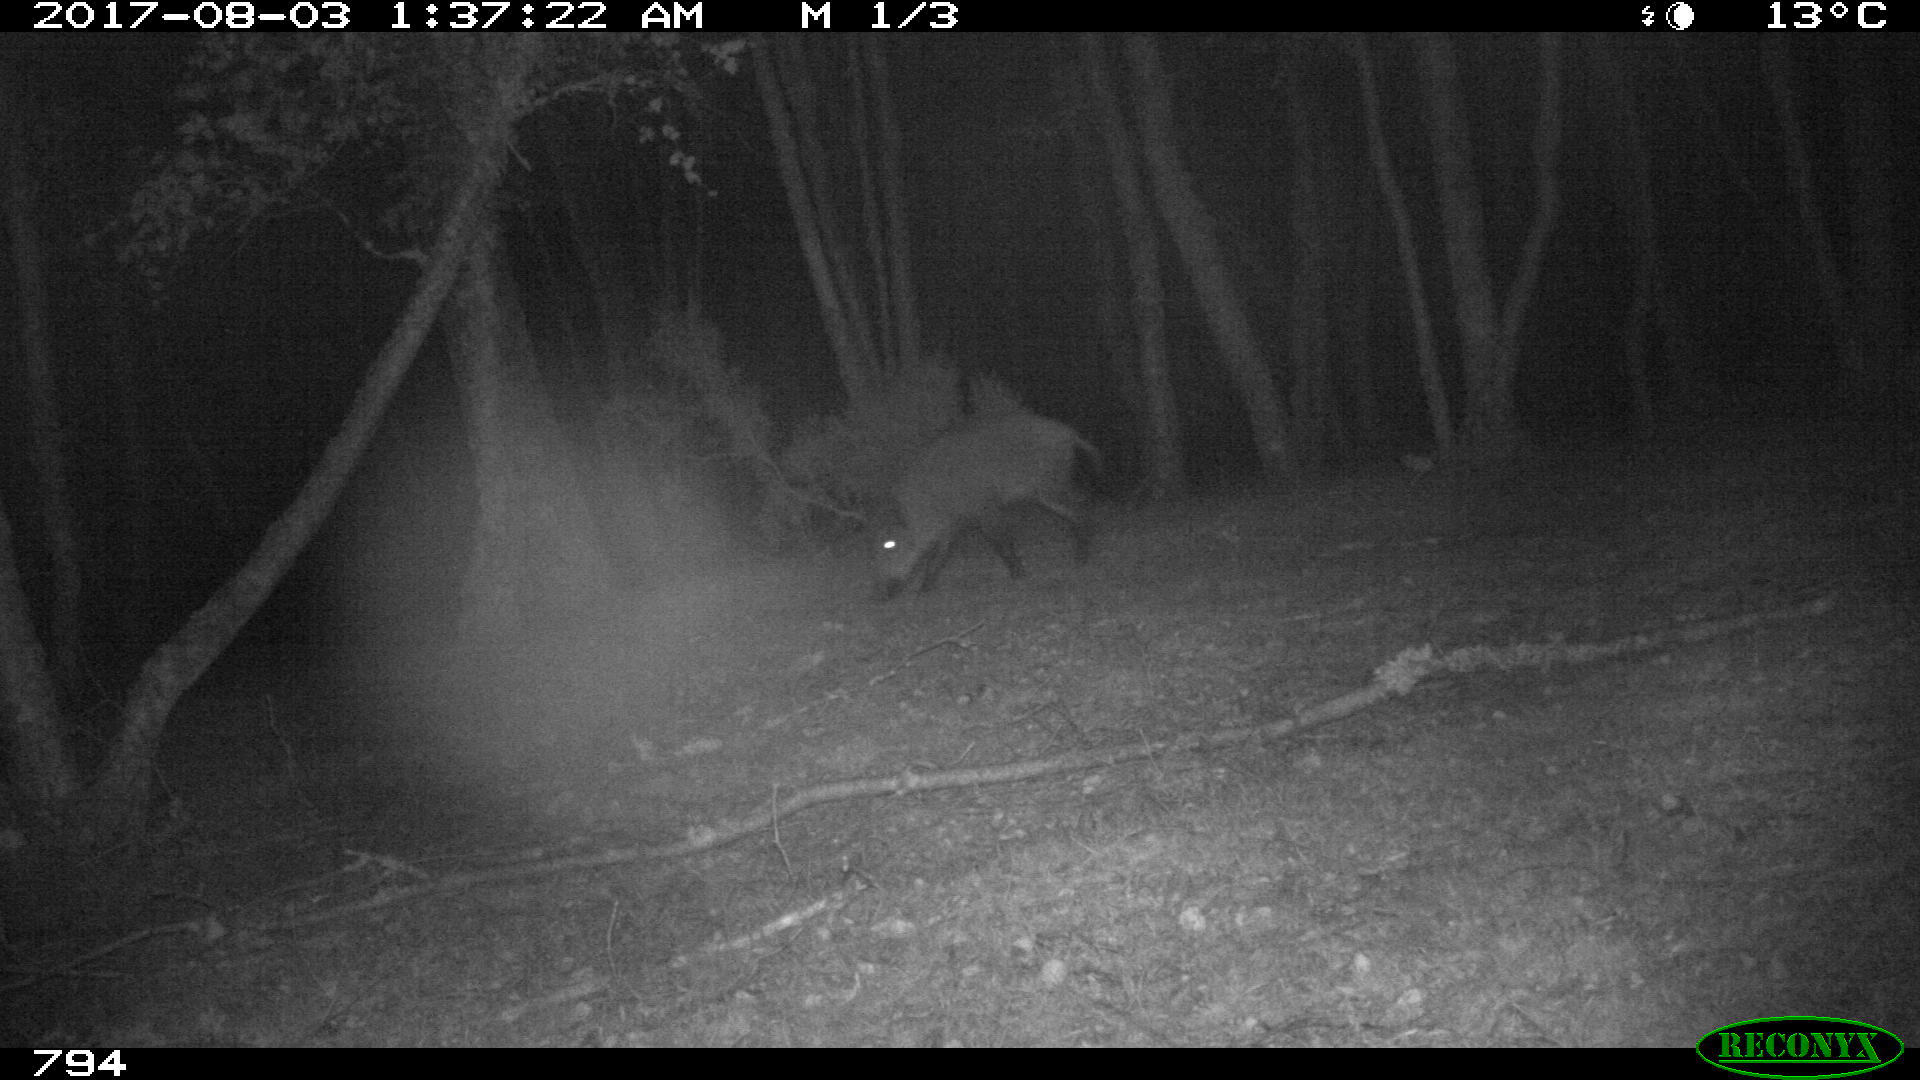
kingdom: Animalia
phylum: Chordata
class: Mammalia
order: Artiodactyla
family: Suidae
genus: Sus
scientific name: Sus scrofa
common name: Wild boar
